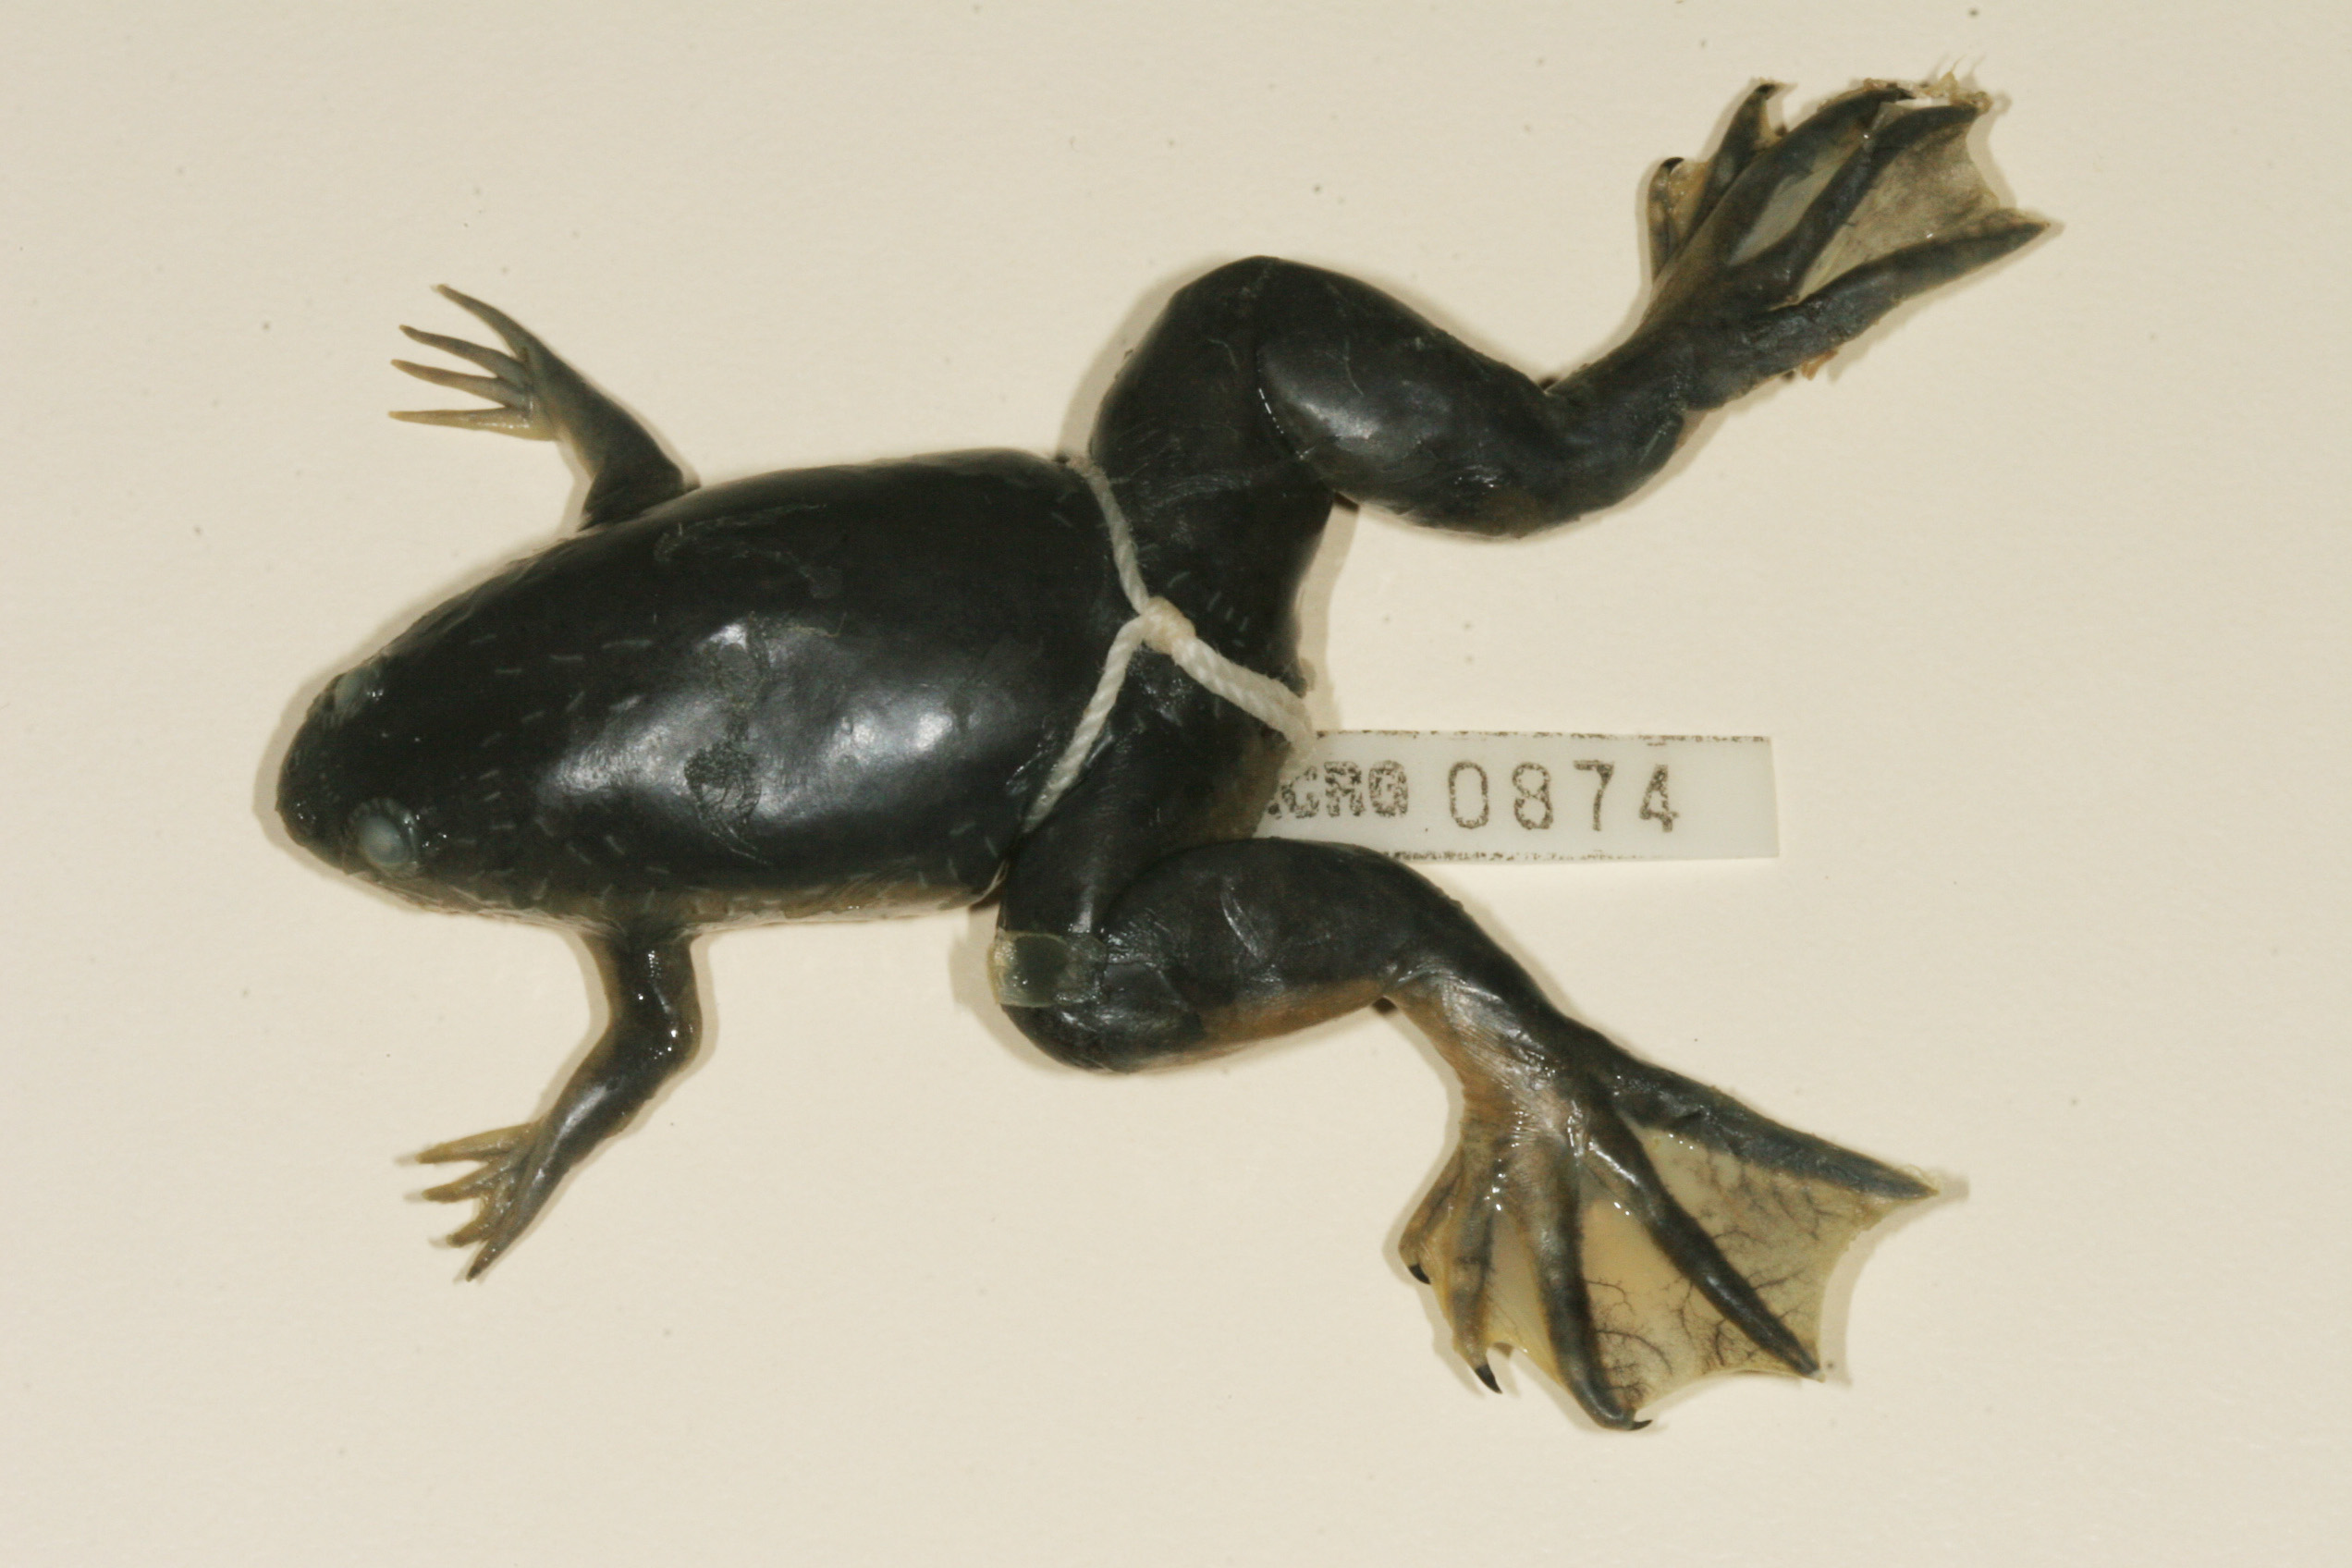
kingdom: Animalia
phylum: Chordata
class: Amphibia
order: Anura
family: Pipidae
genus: Xenopus
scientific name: Xenopus laevis
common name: African clawed frog
